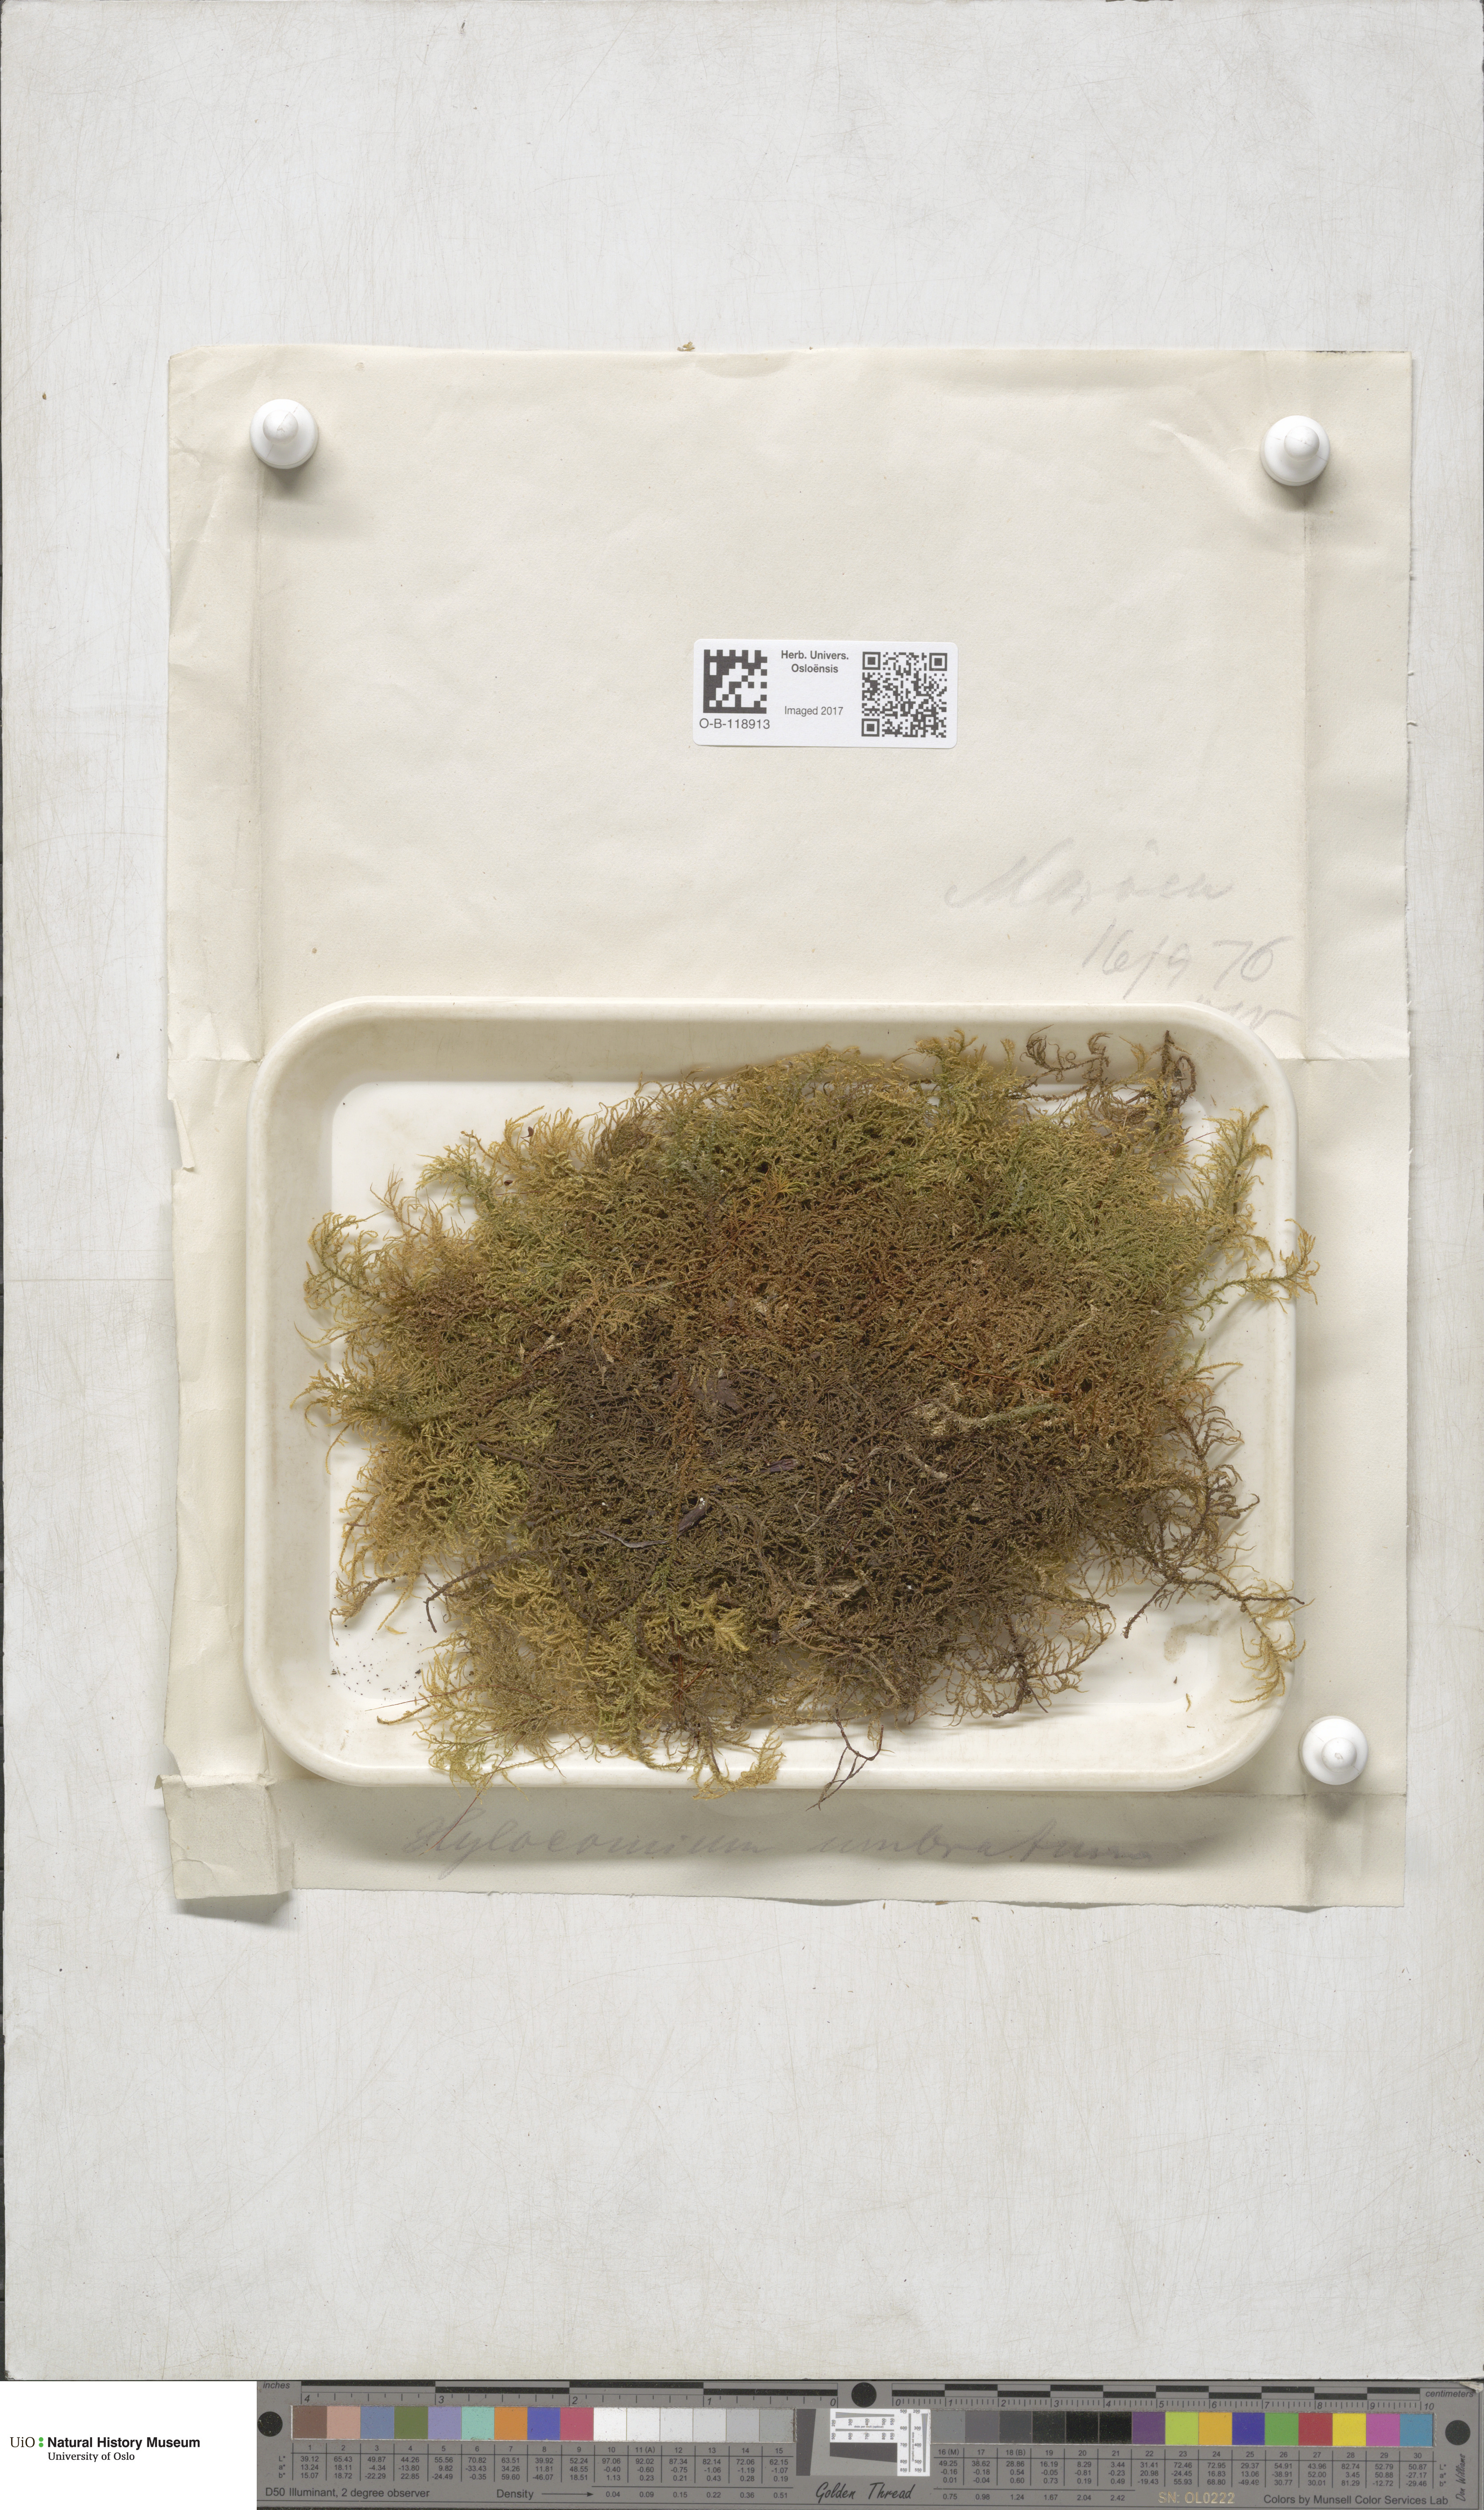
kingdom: Plantae
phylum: Bryophyta
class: Bryopsida
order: Hypnales
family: Hylocomiaceae
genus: Hylocomiastrum
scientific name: Hylocomiastrum umbratum
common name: Shaded woods moss
